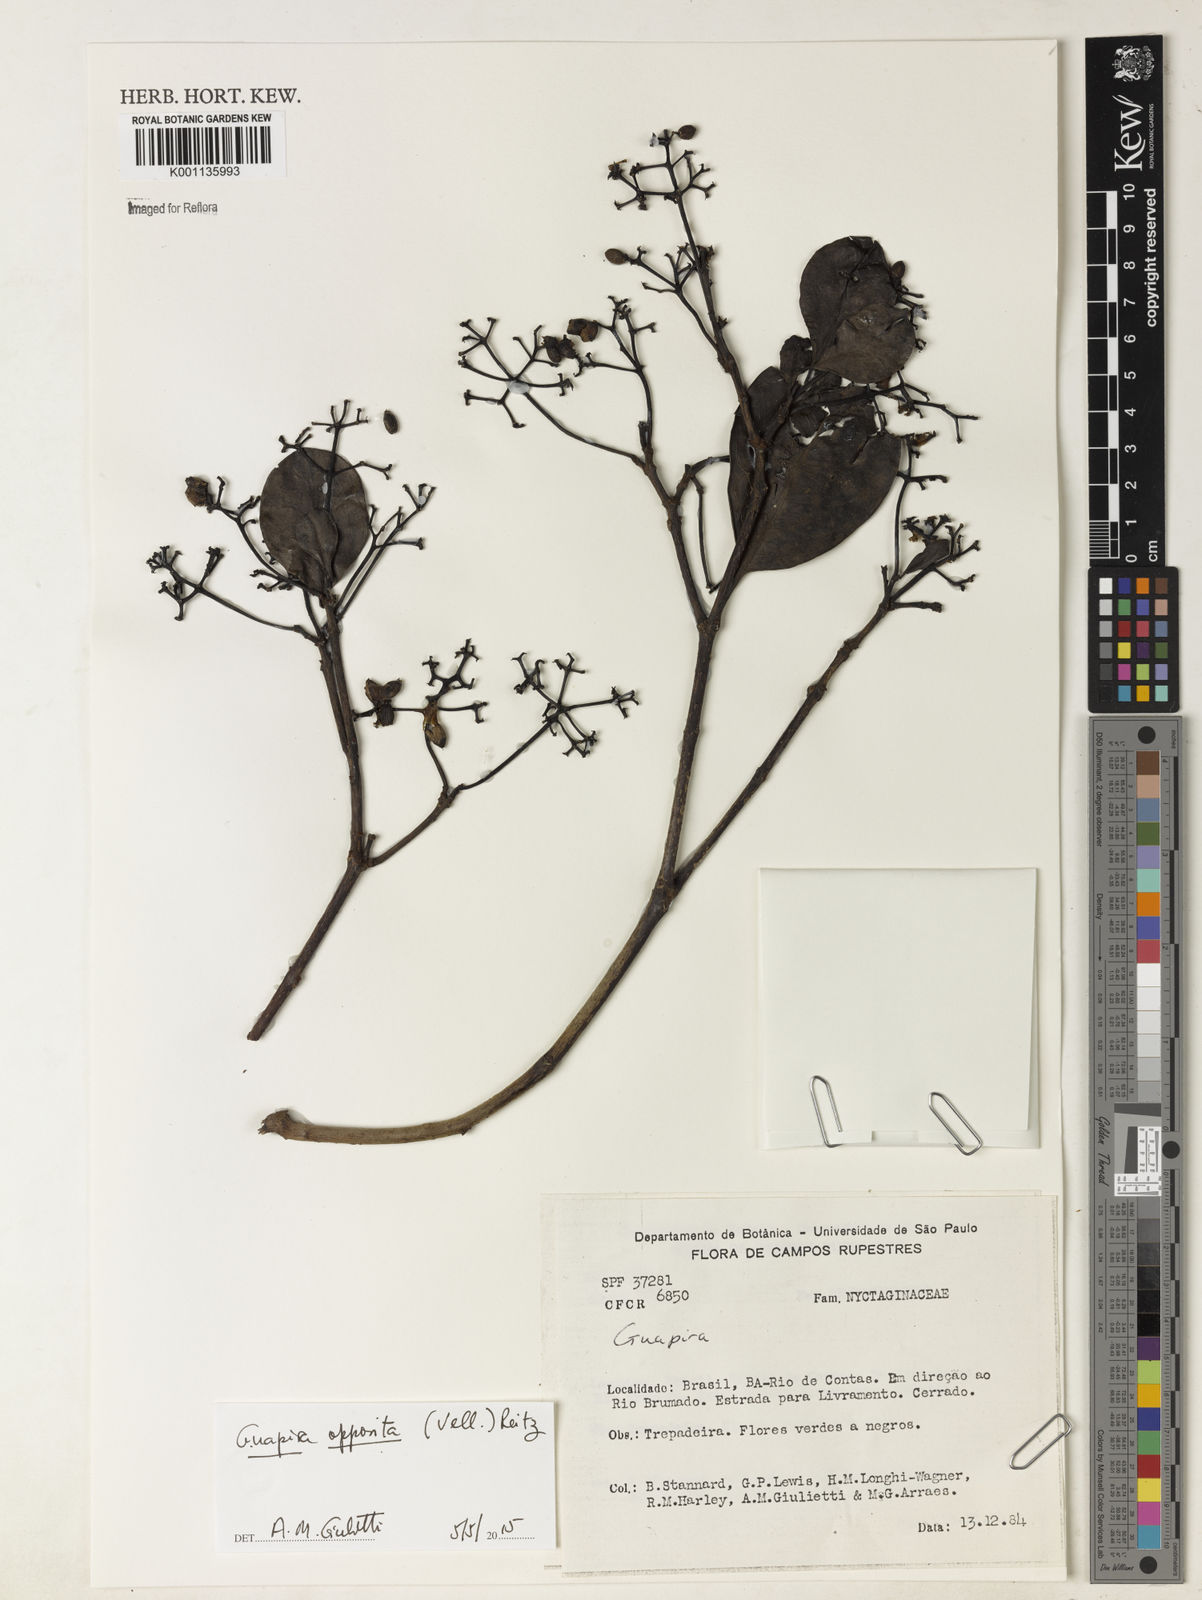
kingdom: Plantae
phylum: Tracheophyta
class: Magnoliopsida
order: Caryophyllales
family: Nyctaginaceae
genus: Guapira
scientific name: Guapira opposita
